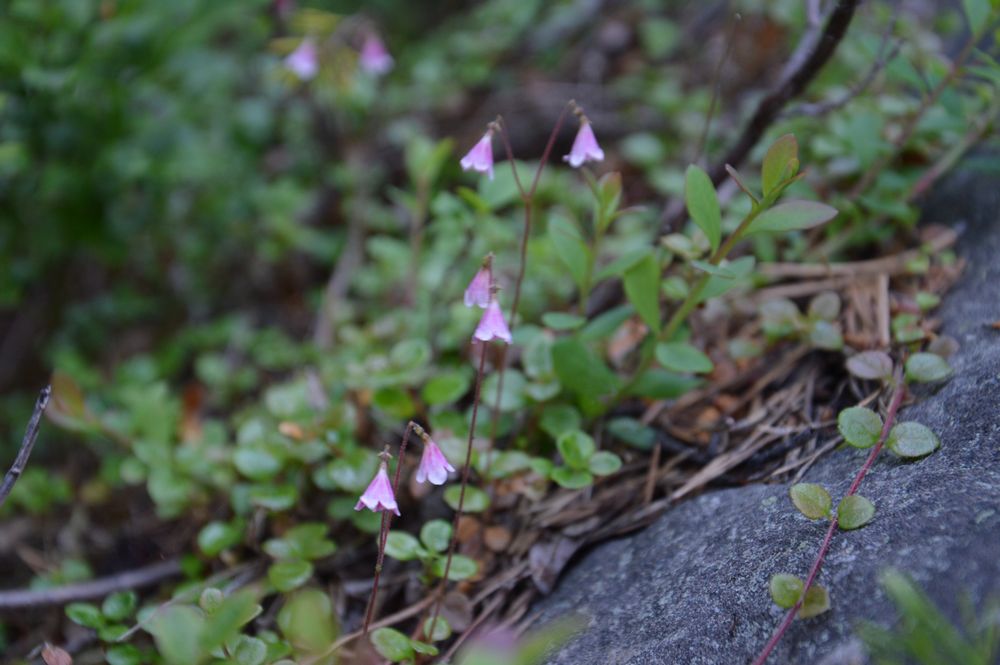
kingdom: Plantae
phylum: Tracheophyta
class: Magnoliopsida
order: Dipsacales
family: Caprifoliaceae
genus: Linnaea
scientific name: Linnaea borealis
